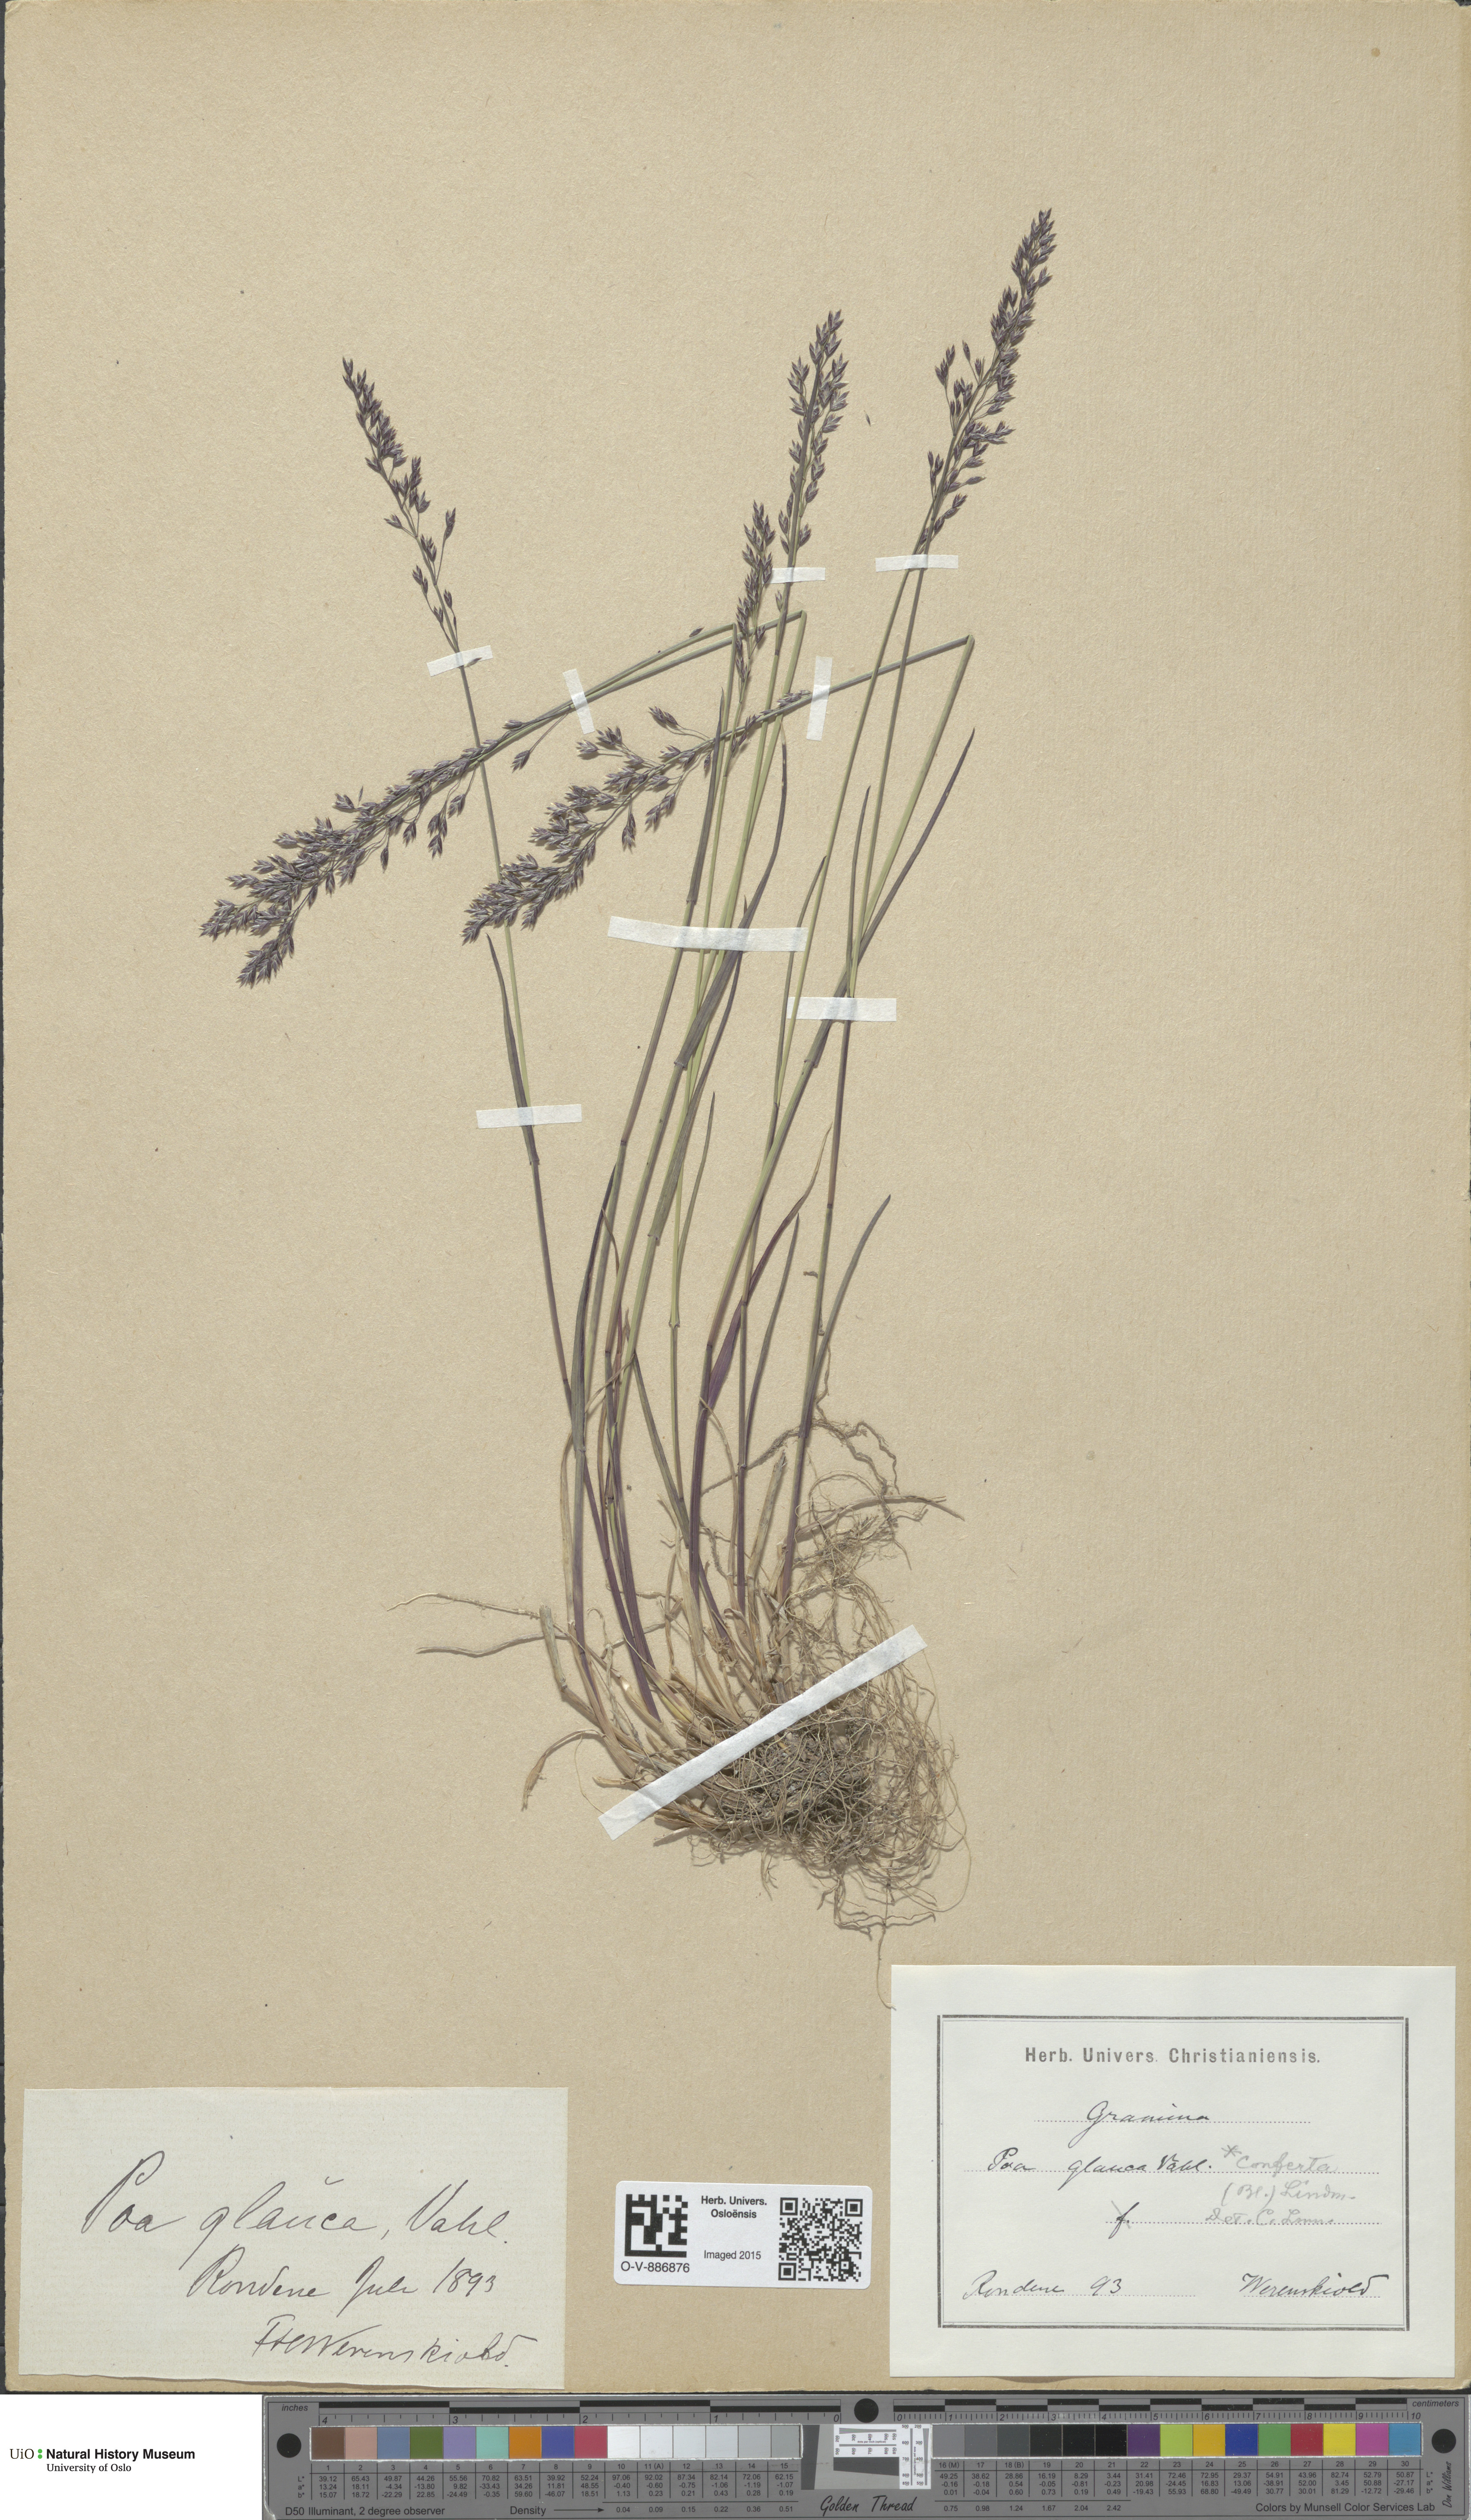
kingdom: Plantae
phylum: Tracheophyta
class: Liliopsida
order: Poales
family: Poaceae
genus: Poa
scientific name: Poa glauca
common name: Glaucous bluegrass
